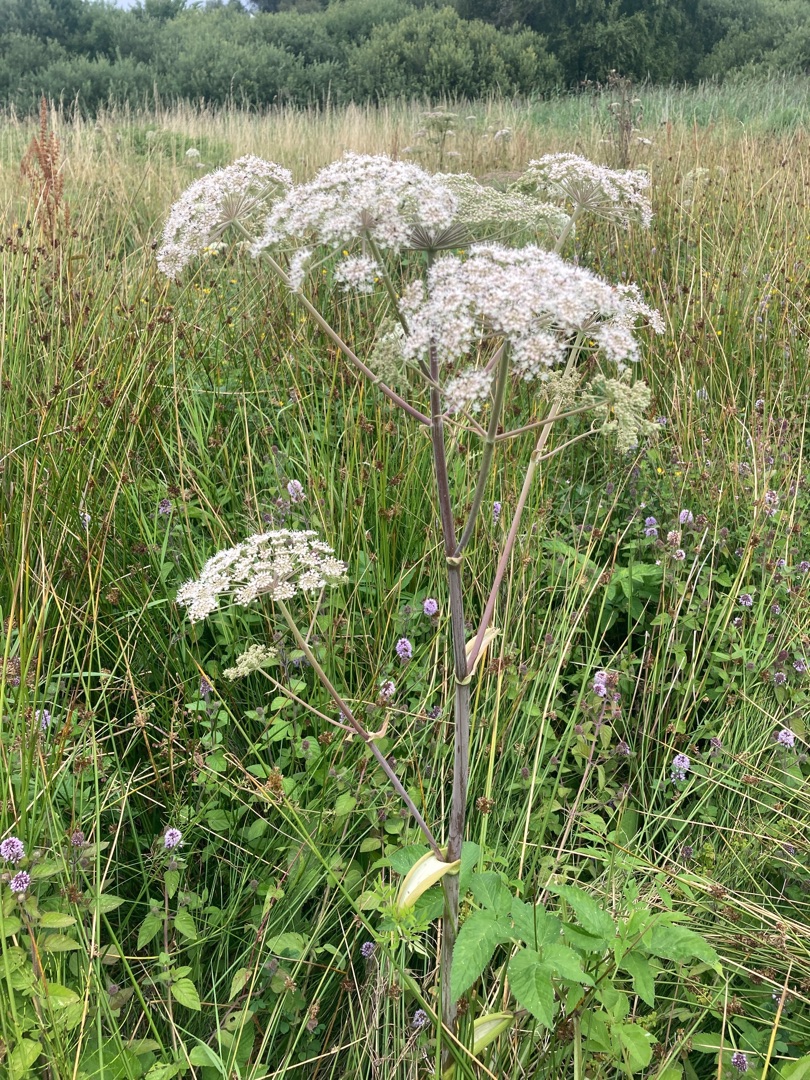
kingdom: Plantae
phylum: Tracheophyta
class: Magnoliopsida
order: Apiales
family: Apiaceae
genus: Angelica
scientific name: Angelica sylvestris
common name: Angelik
